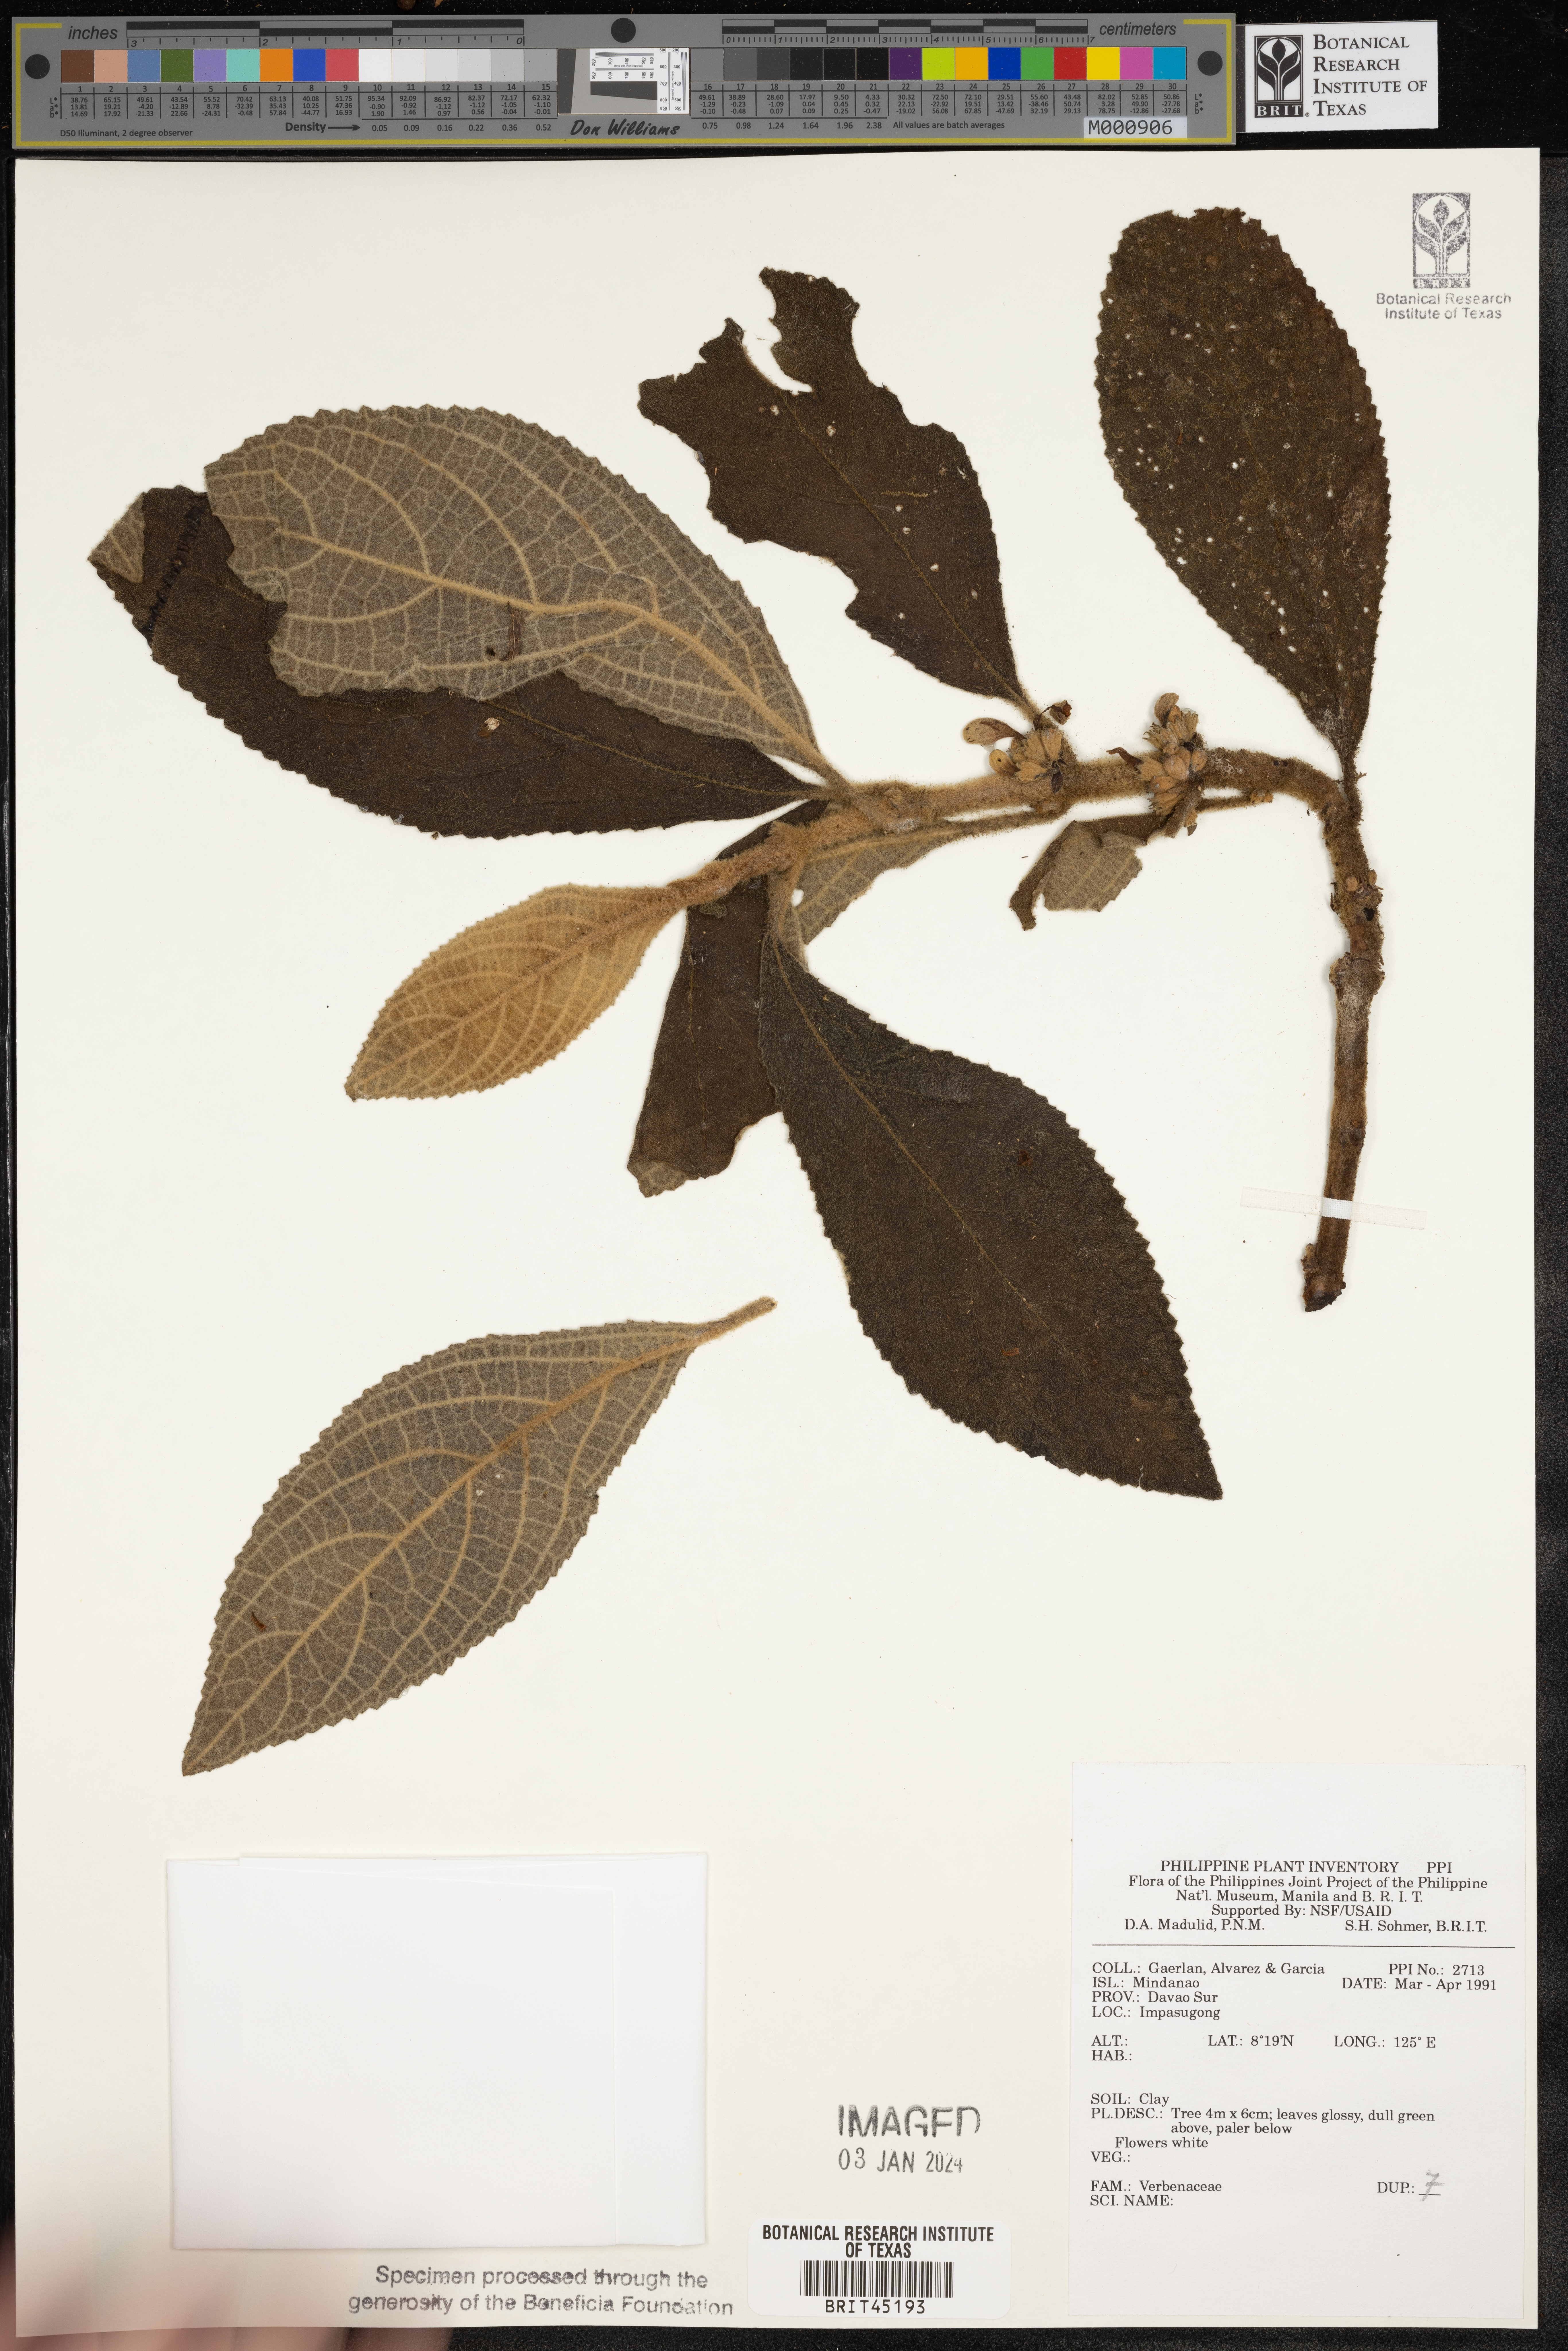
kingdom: Plantae
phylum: Tracheophyta
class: Magnoliopsida
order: Lamiales
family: Verbenaceae
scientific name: Verbenaceae
